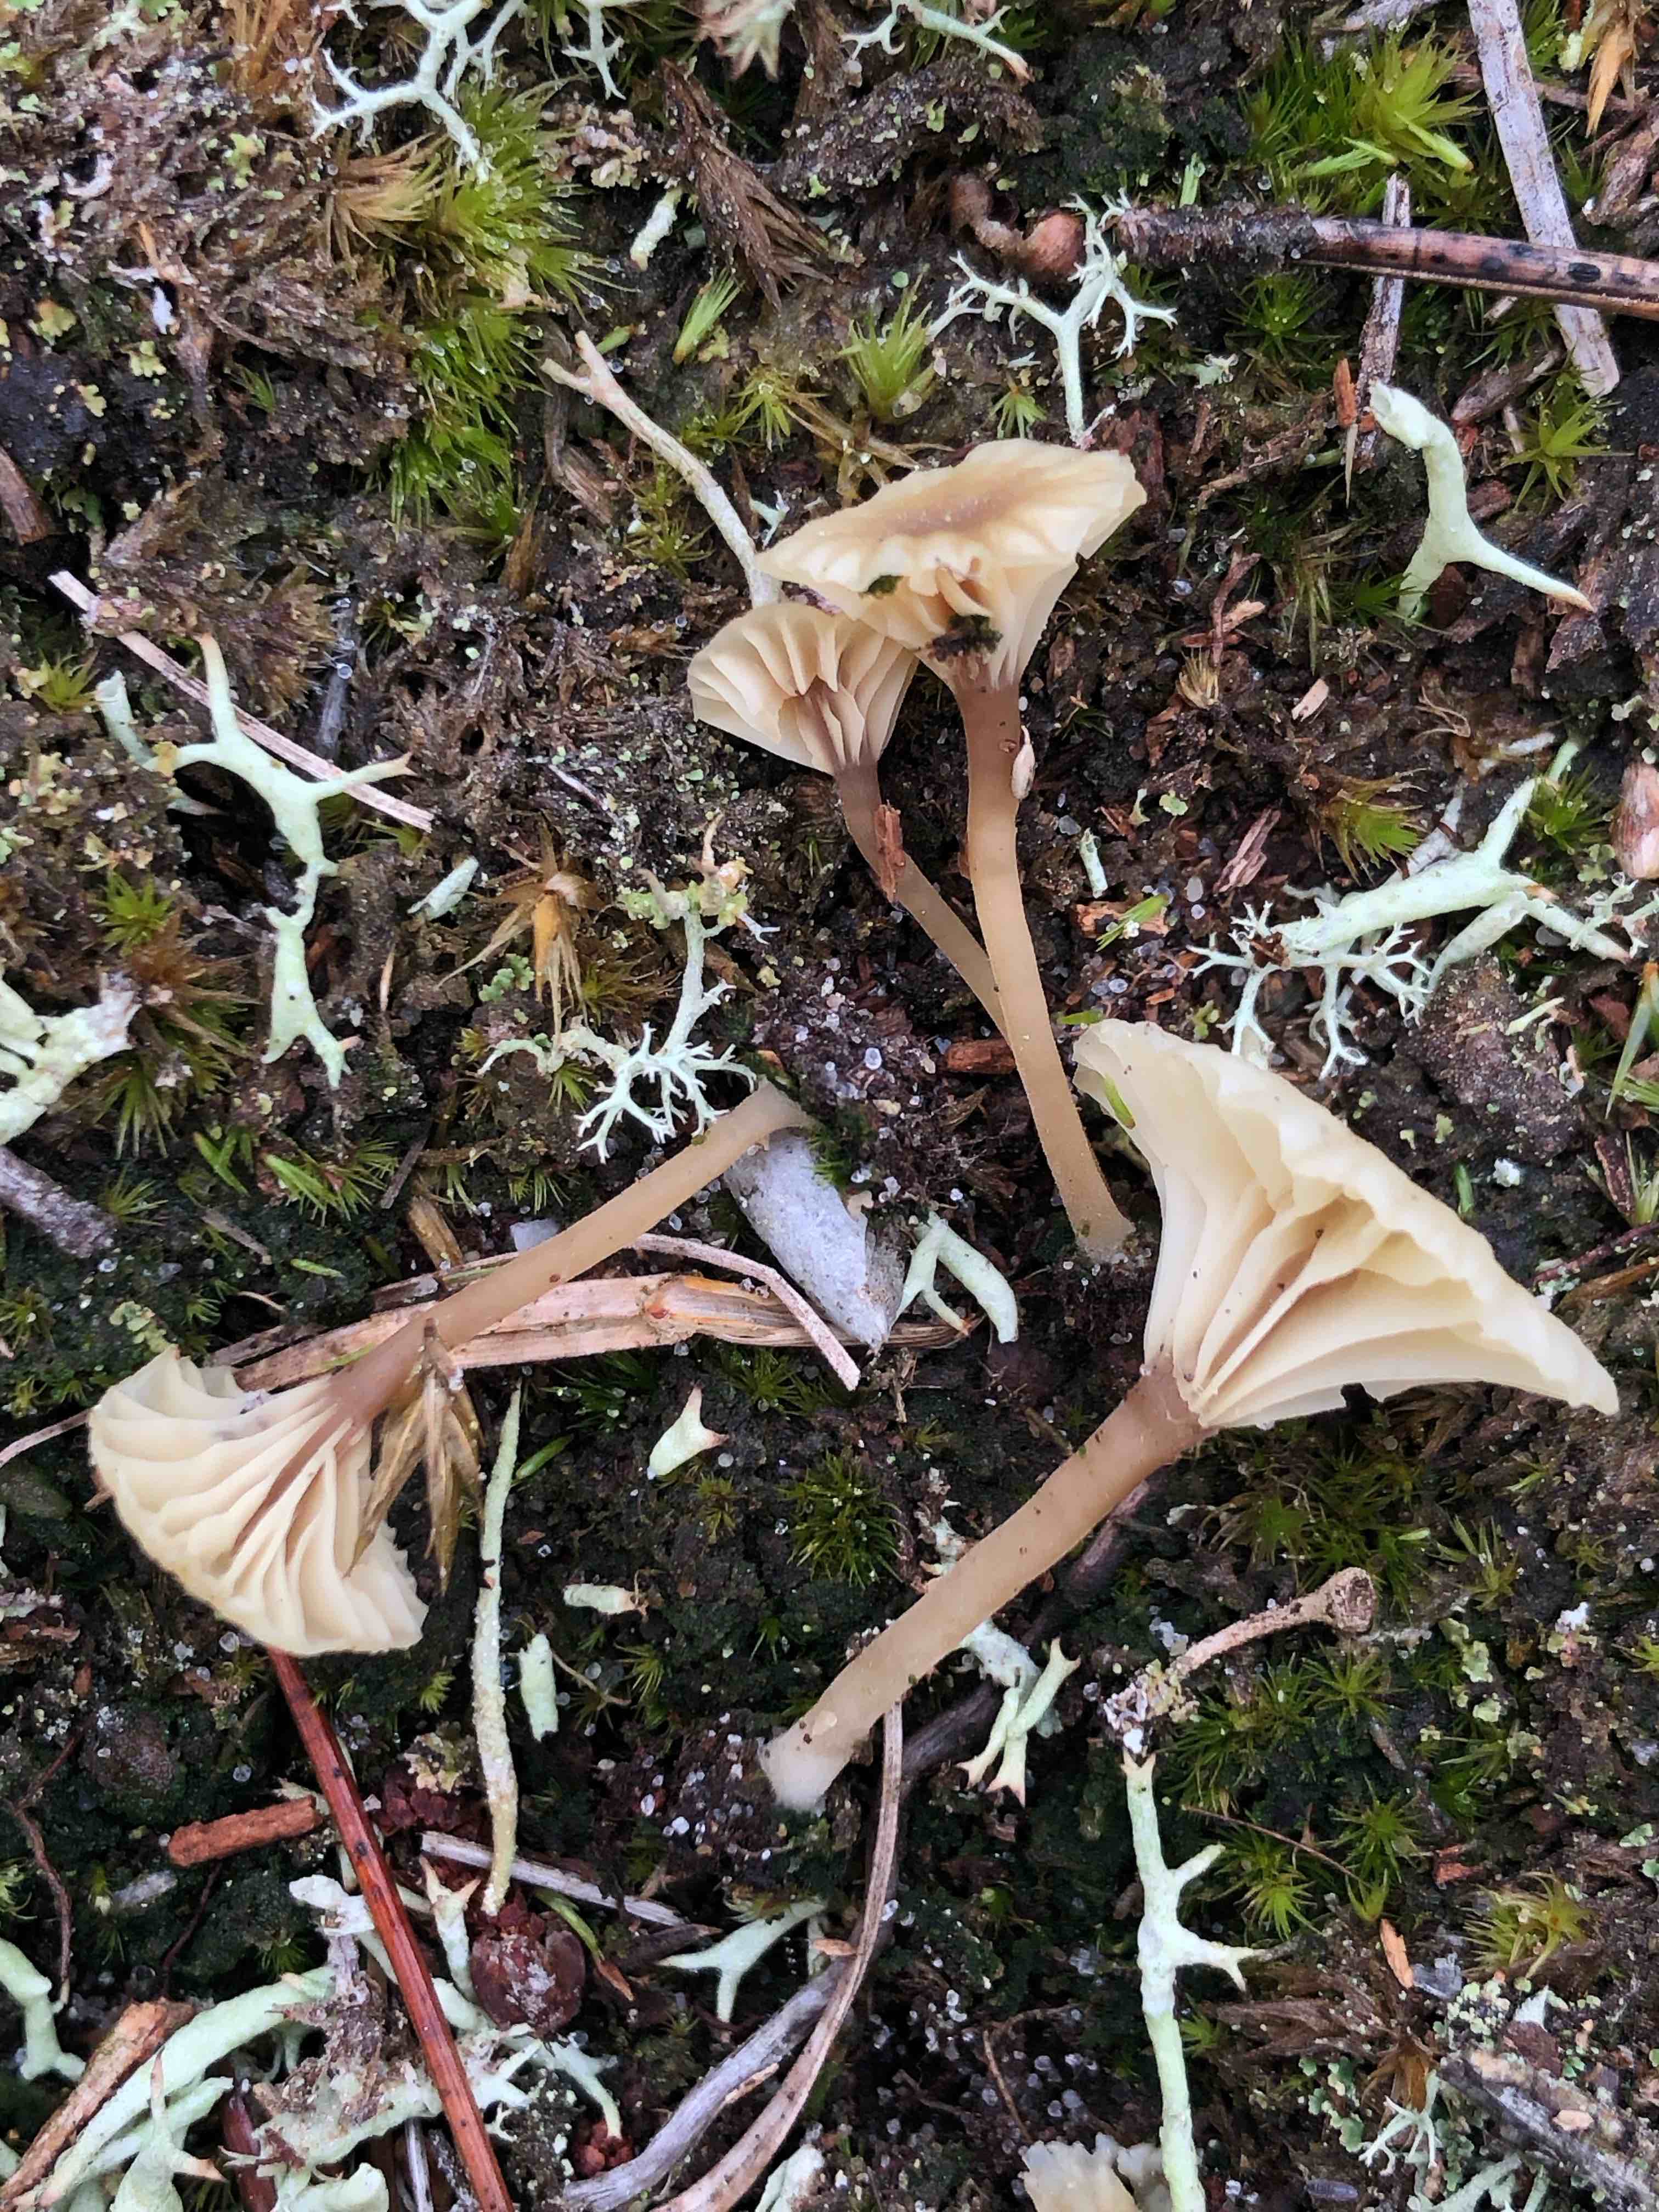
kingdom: Fungi
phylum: Basidiomycota
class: Agaricomycetes
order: Agaricales
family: Hygrophoraceae
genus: Lichenomphalia
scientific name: Lichenomphalia umbellifera
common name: tørve-lavhat
